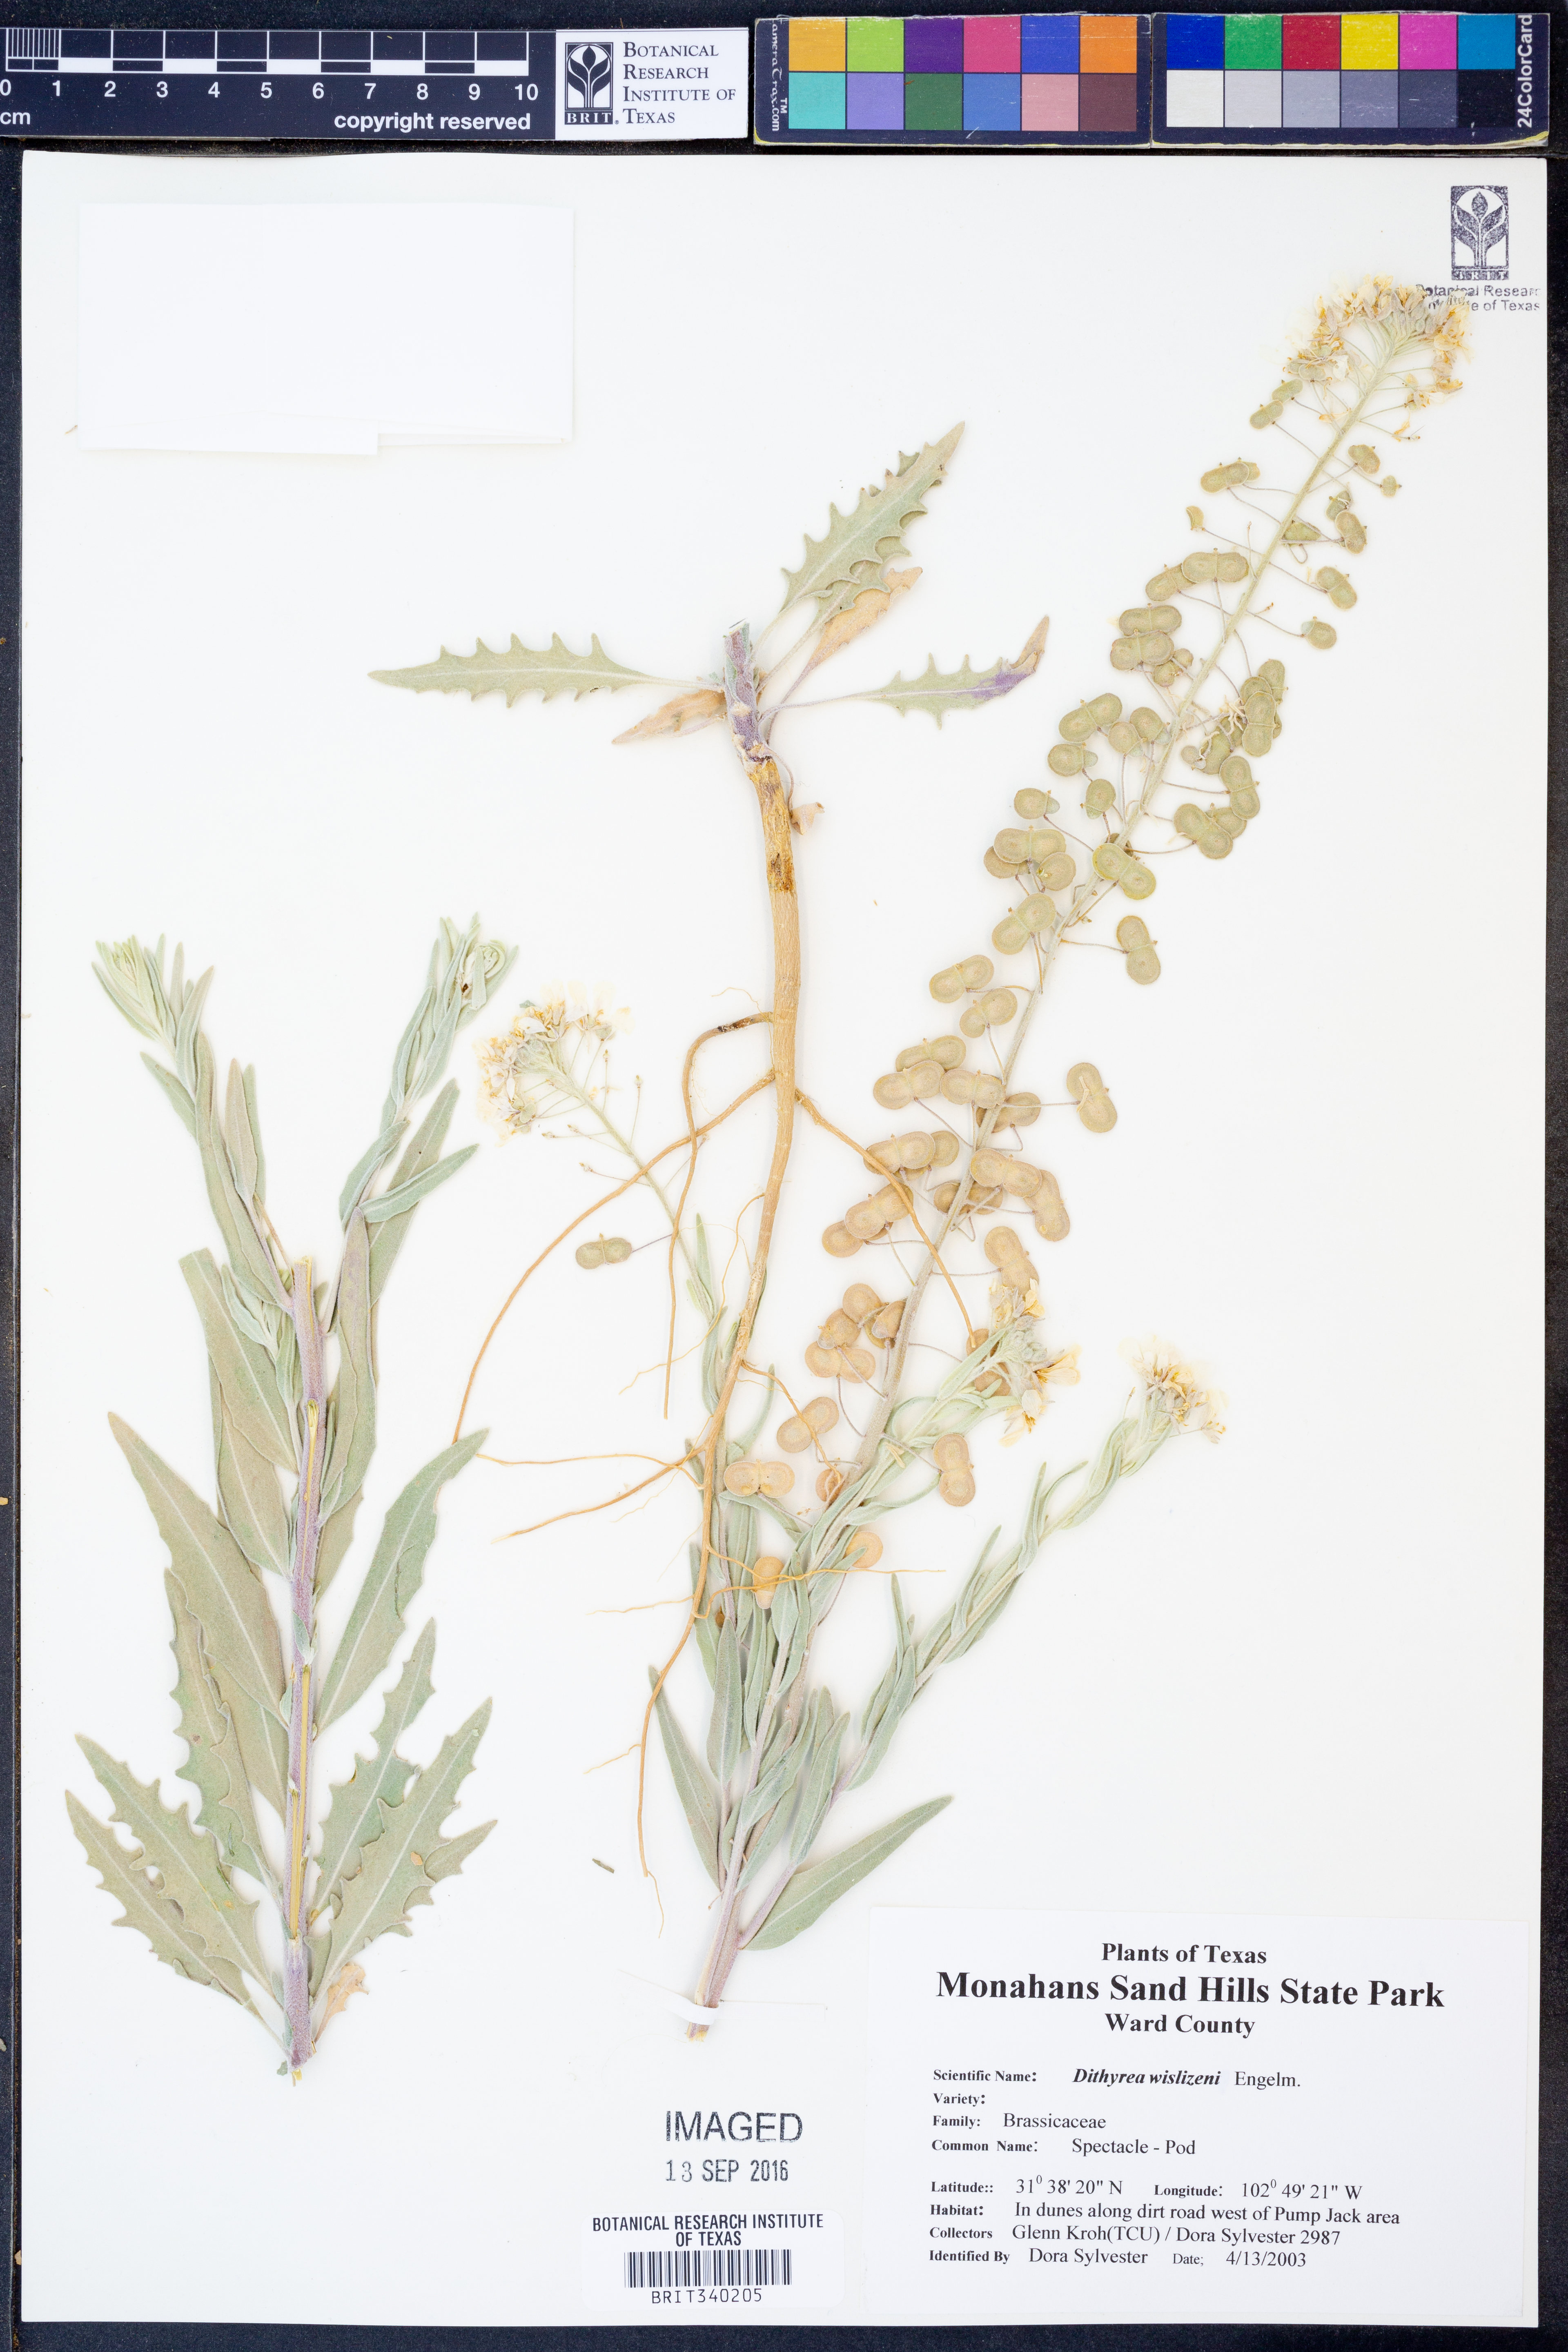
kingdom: Plantae
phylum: Tracheophyta
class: Magnoliopsida
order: Brassicales
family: Brassicaceae
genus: Dimorphocarpa
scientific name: Dimorphocarpa wislizenii
